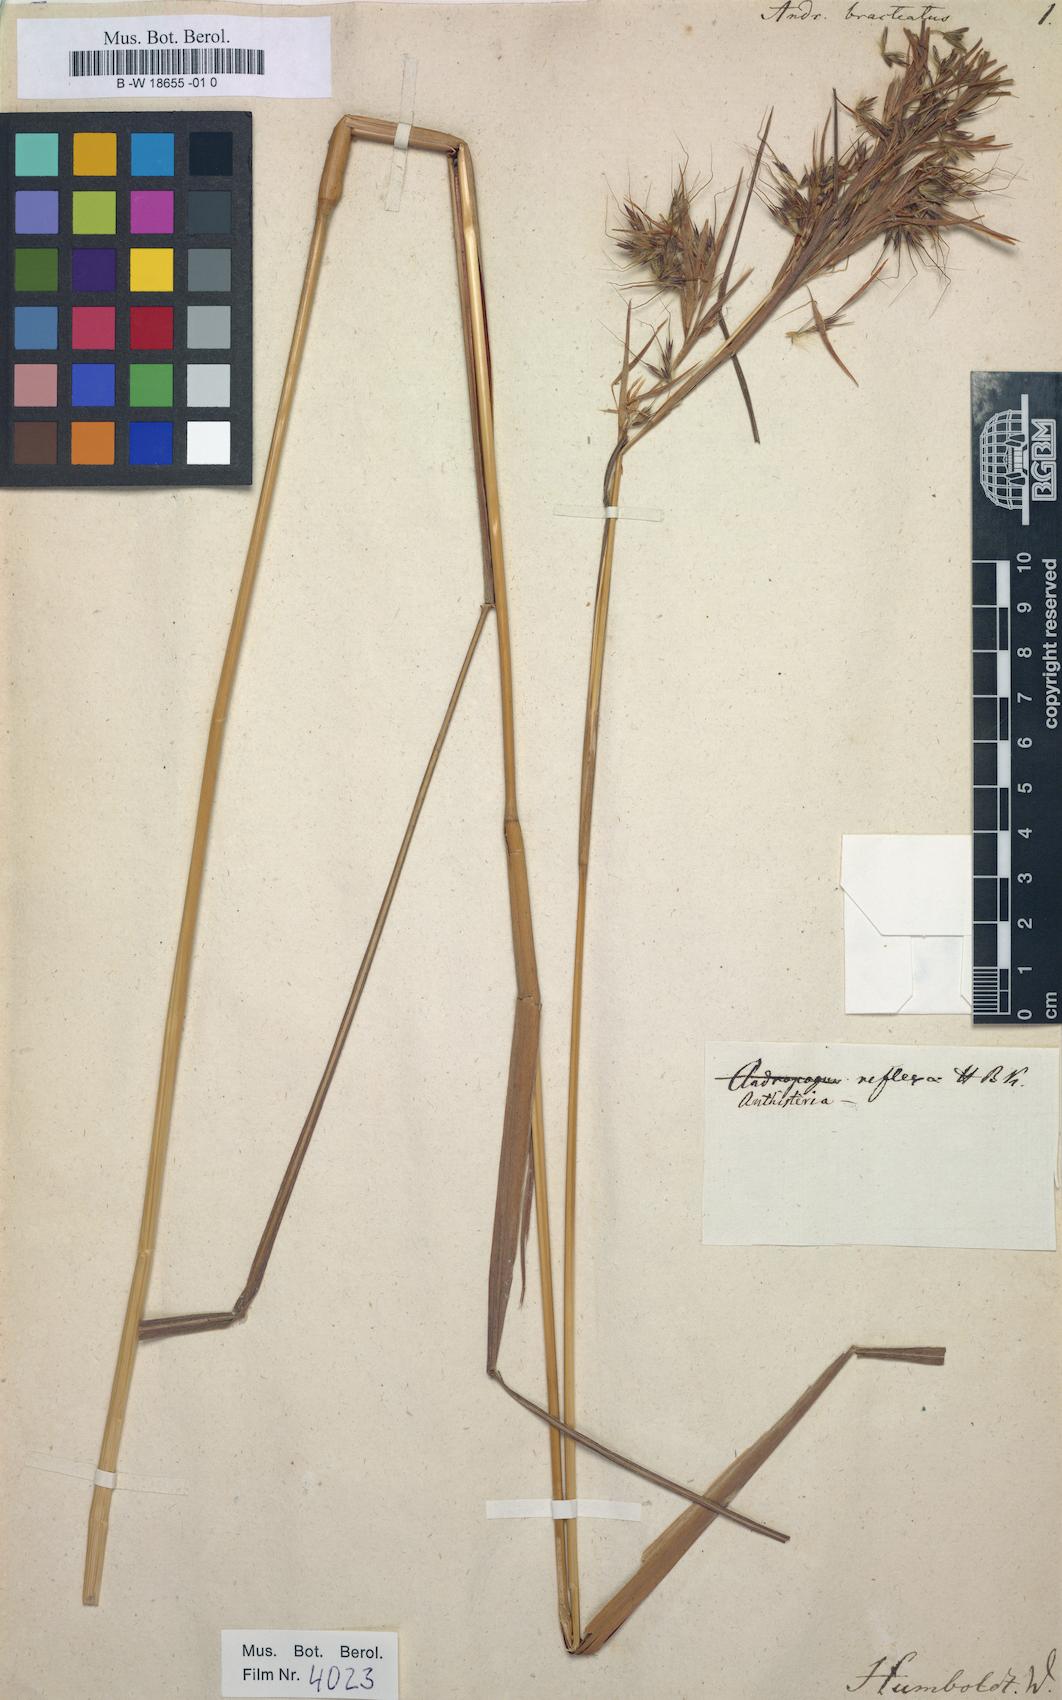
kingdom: Plantae
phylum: Tracheophyta
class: Liliopsida
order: Poales
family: Poaceae
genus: Hyparrhenia
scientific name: Hyparrhenia bracteata
